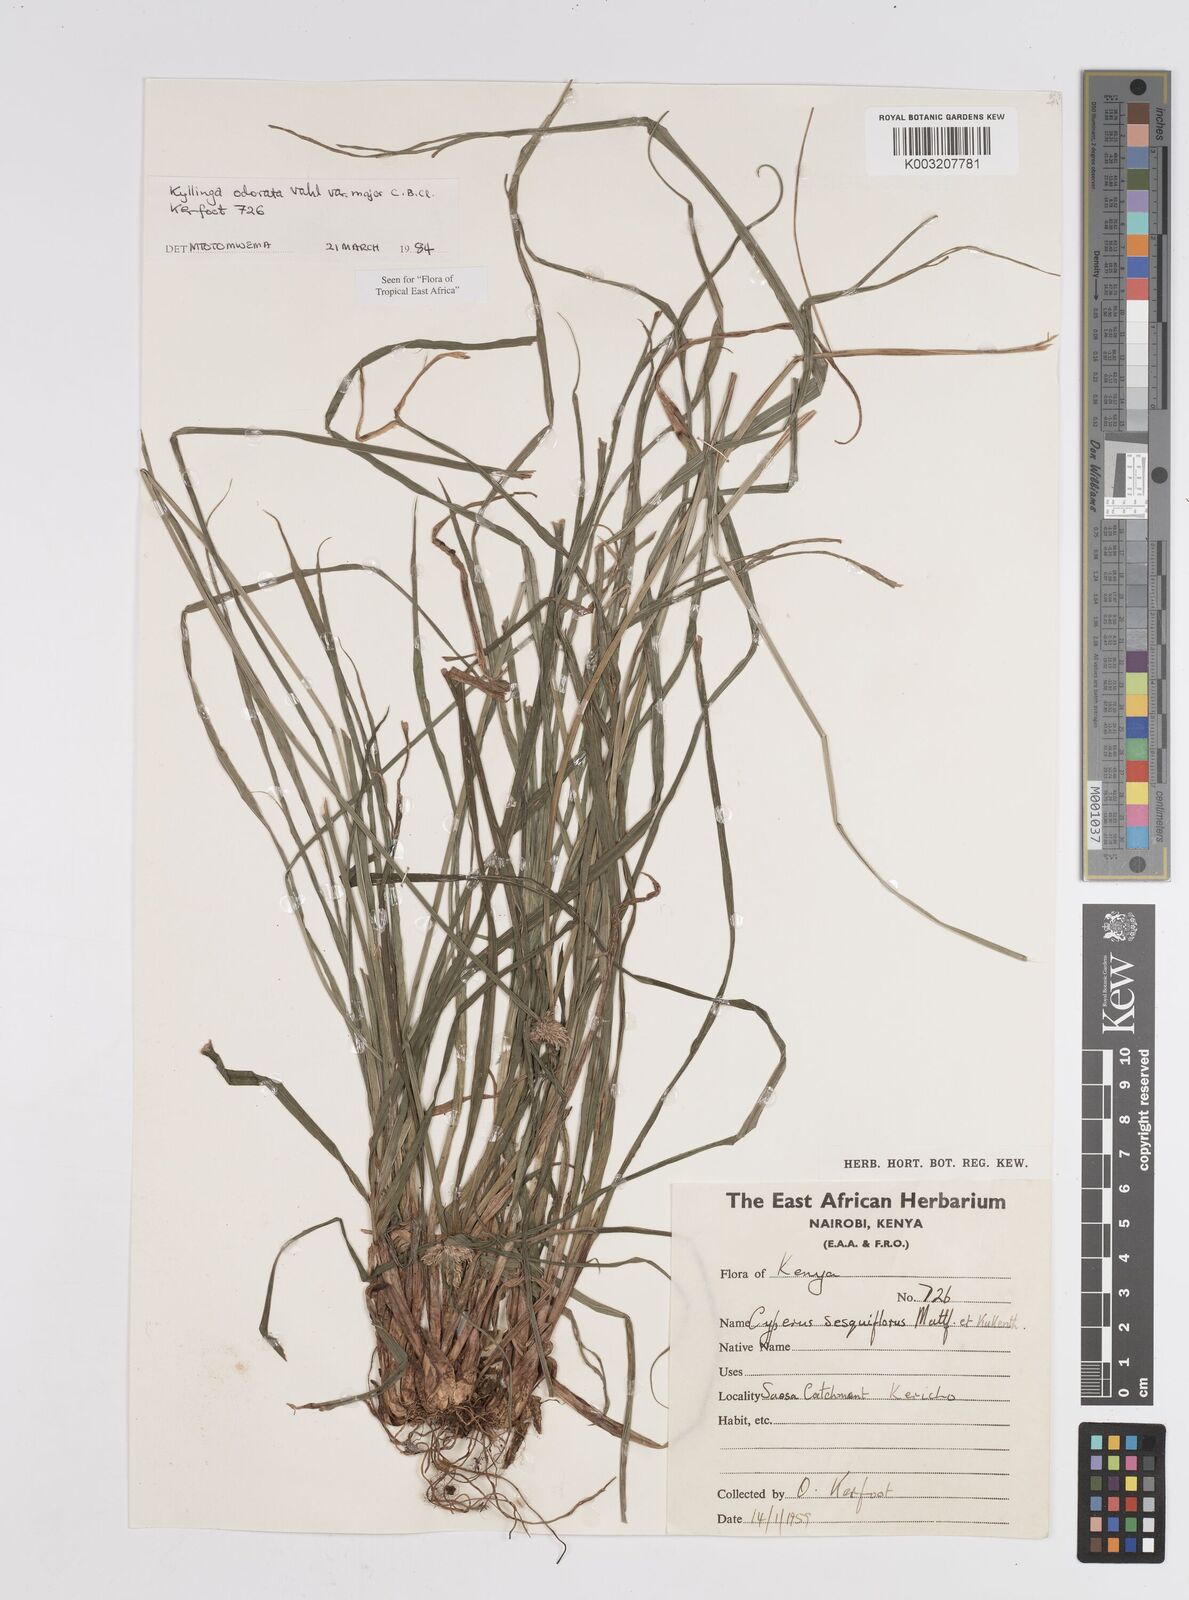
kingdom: Plantae
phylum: Tracheophyta
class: Liliopsida
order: Poales
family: Cyperaceae
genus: Cyperus
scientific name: Cyperus
